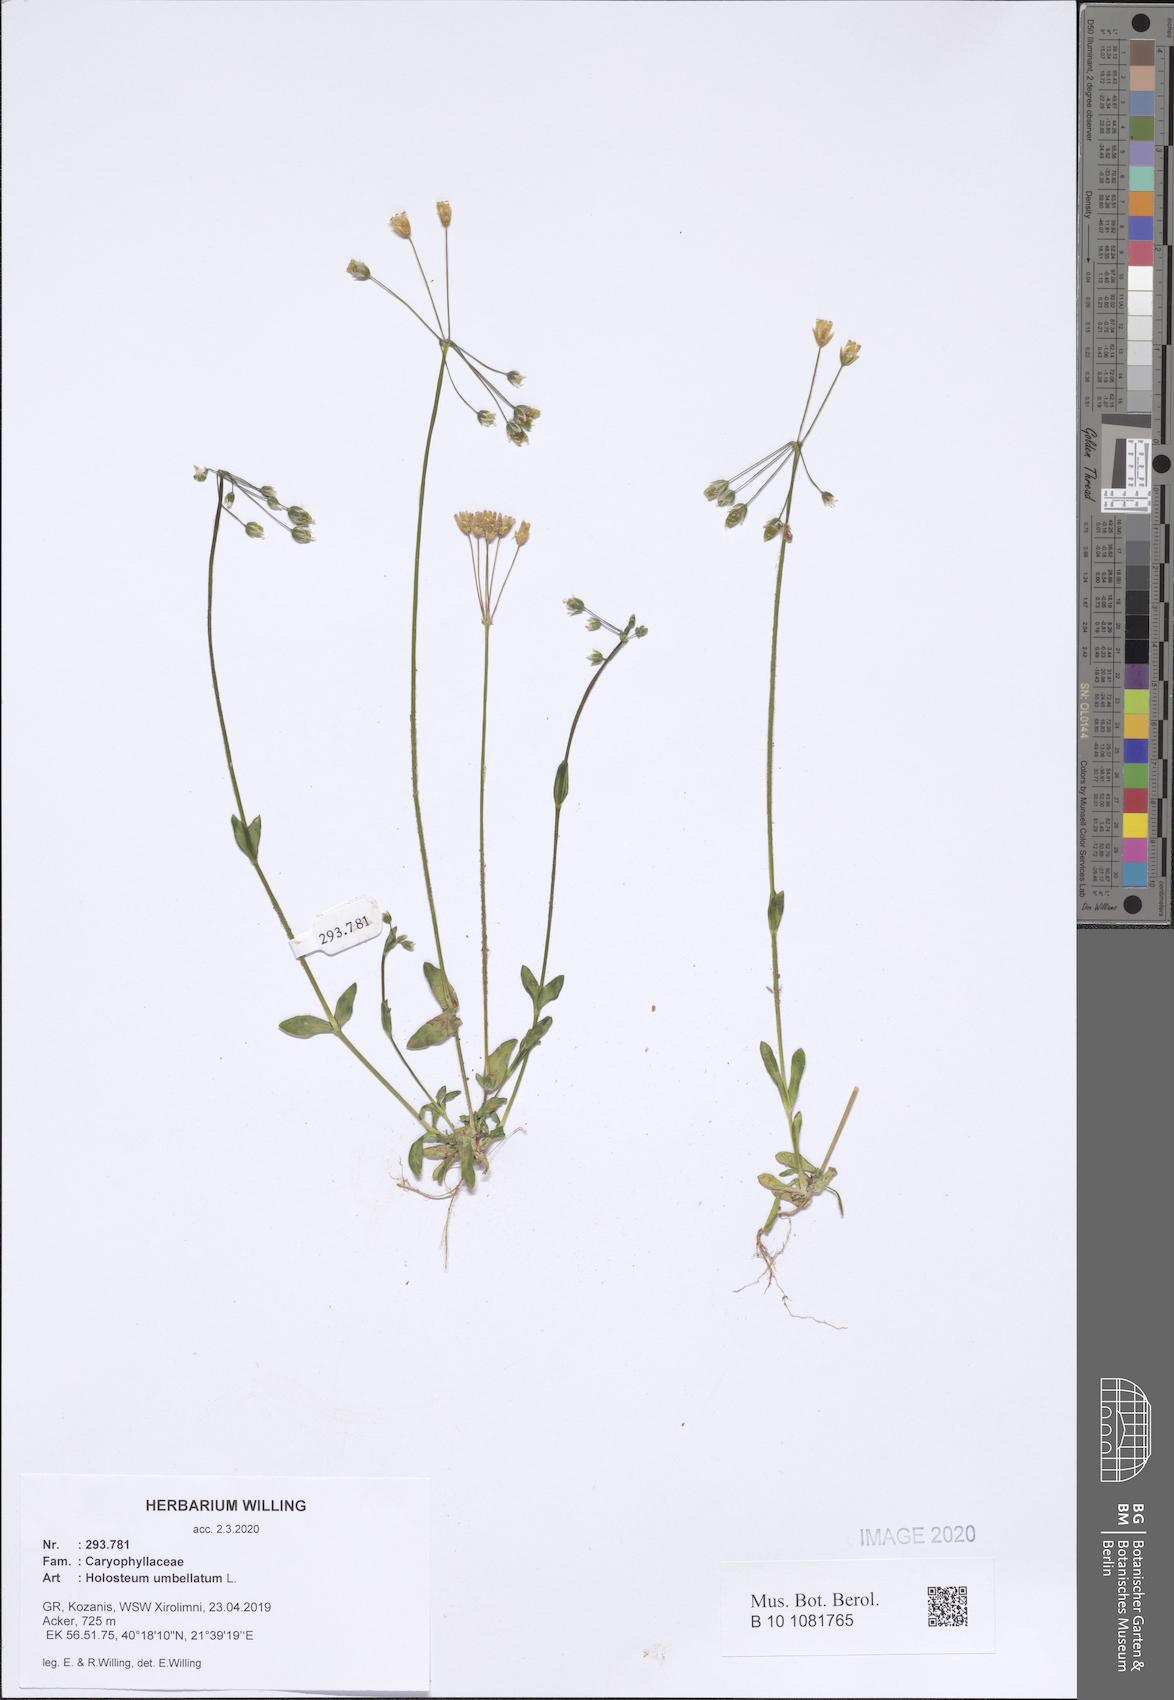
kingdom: Plantae
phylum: Tracheophyta
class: Magnoliopsida
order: Caryophyllales
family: Caryophyllaceae
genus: Holosteum
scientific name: Holosteum umbellatum
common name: Jagged chickweed
